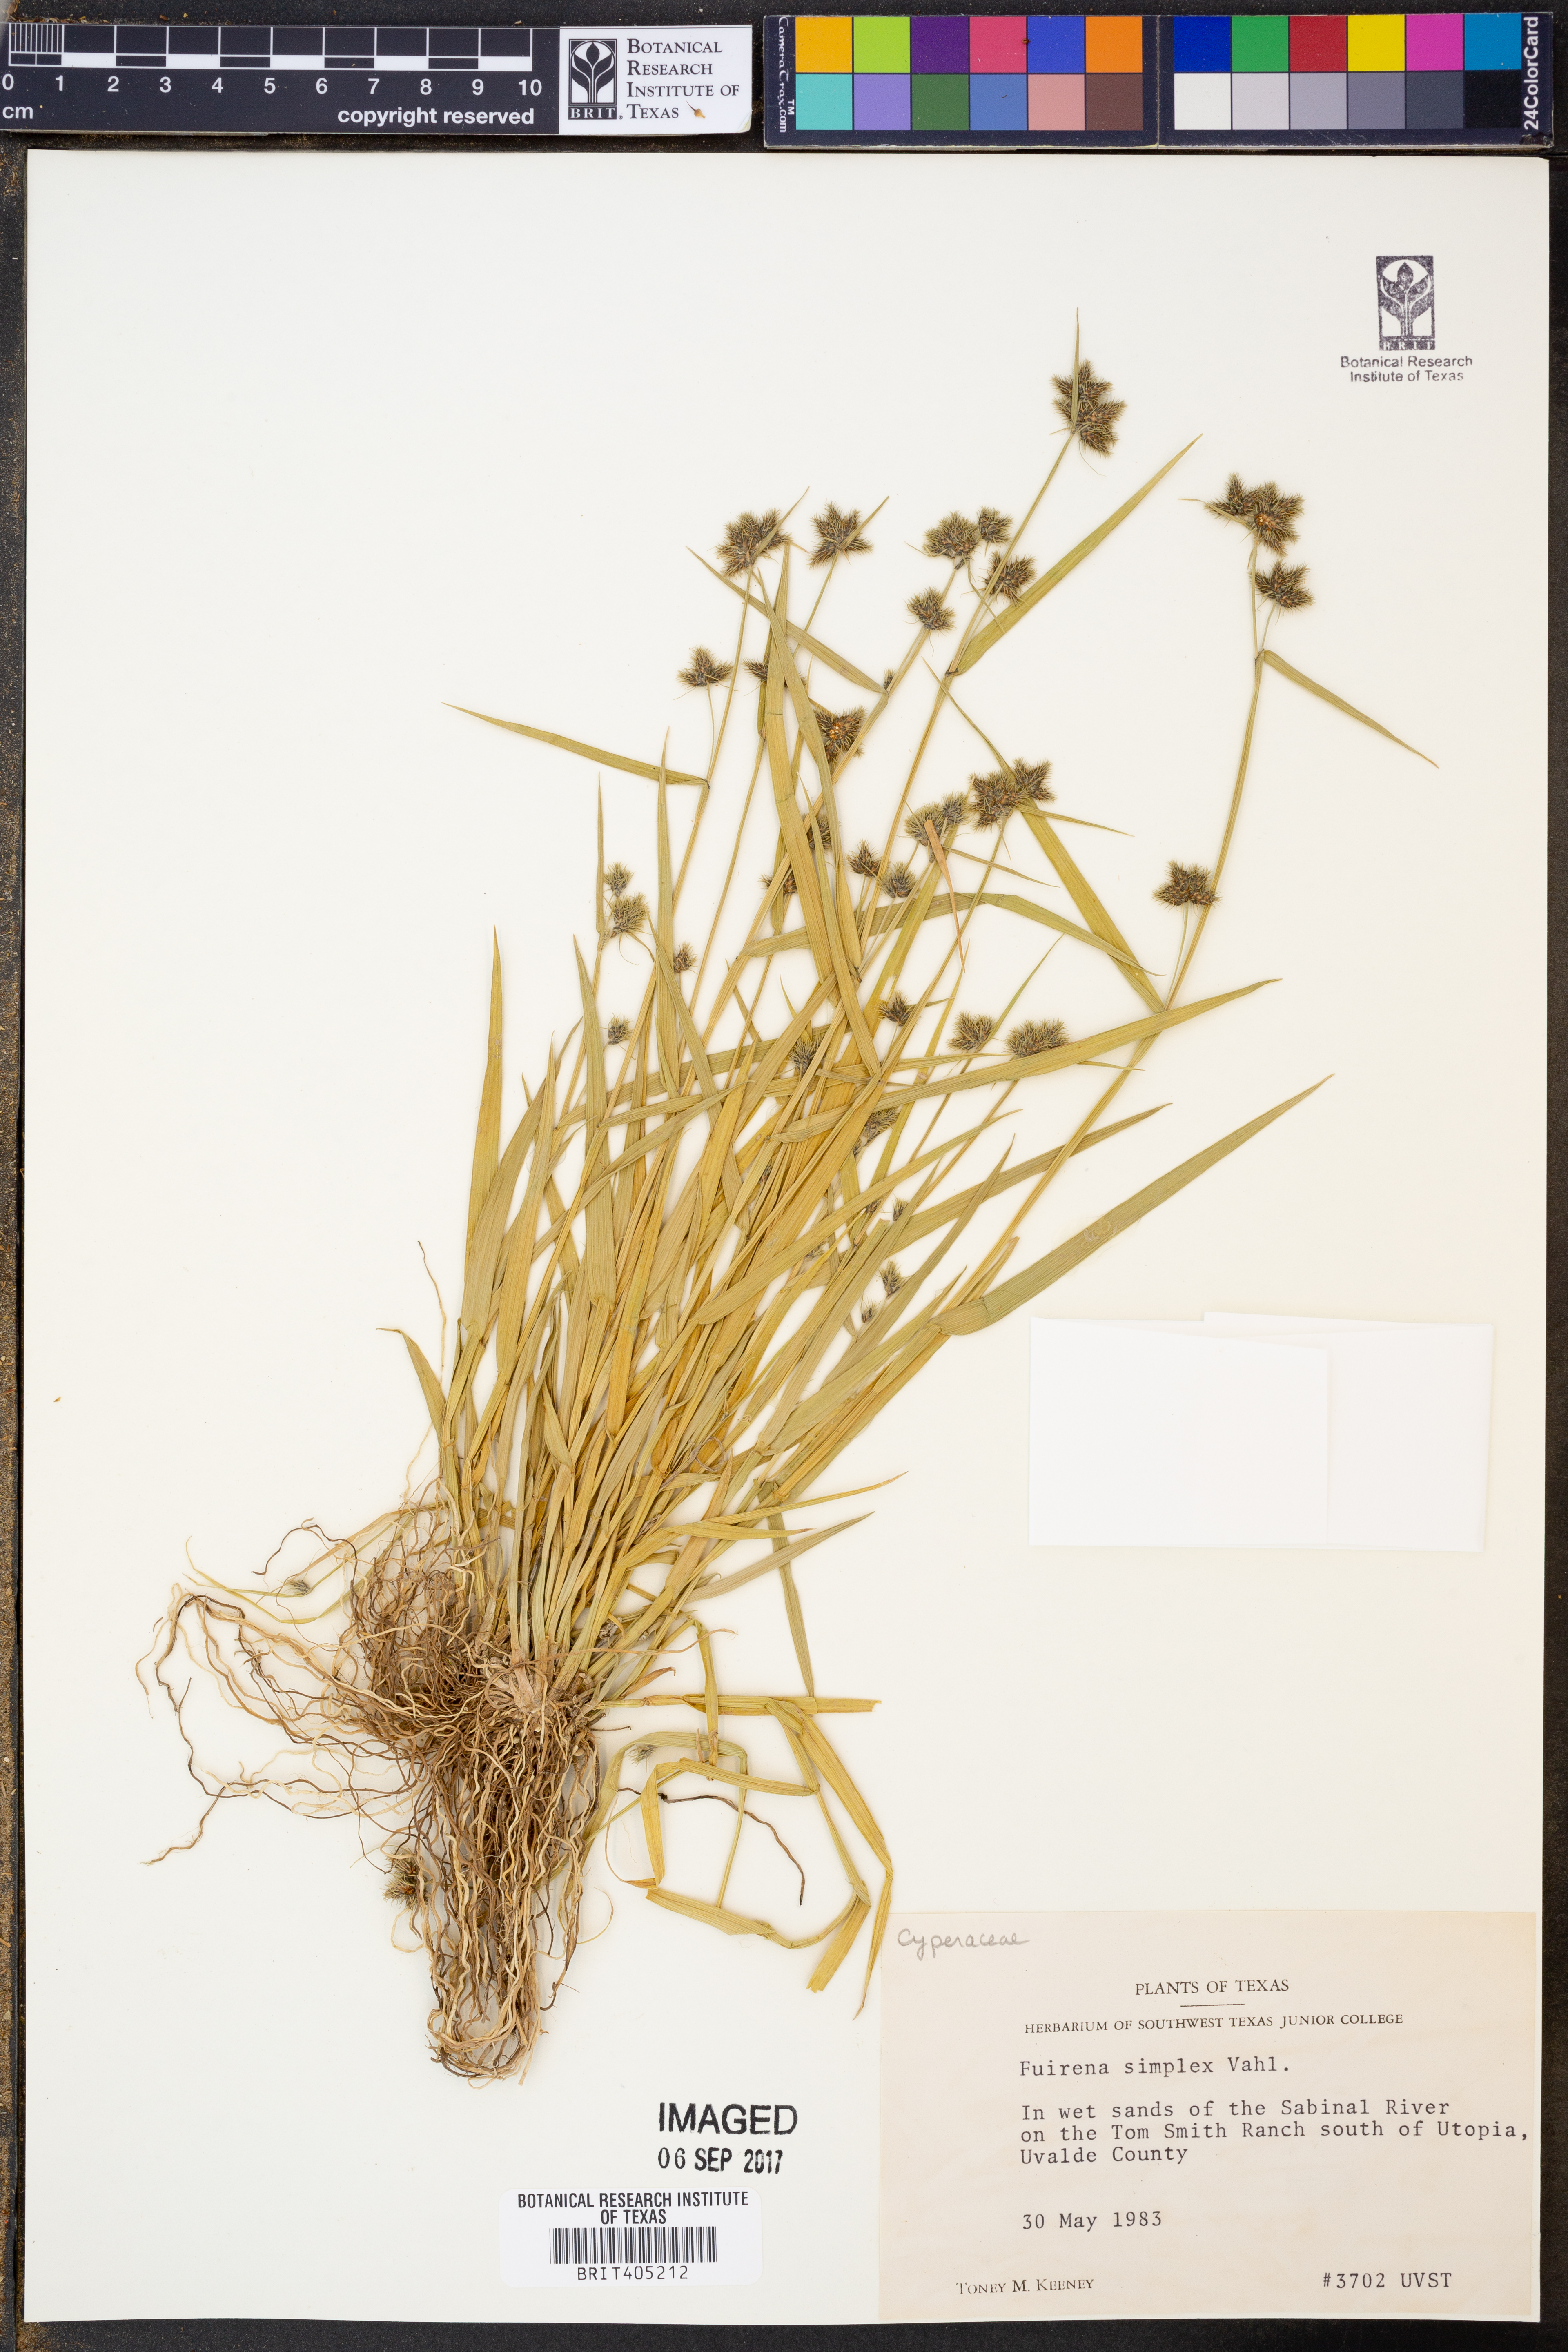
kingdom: Plantae
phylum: Tracheophyta
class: Liliopsida
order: Poales
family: Cyperaceae
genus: Fuirena
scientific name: Fuirena simplex
